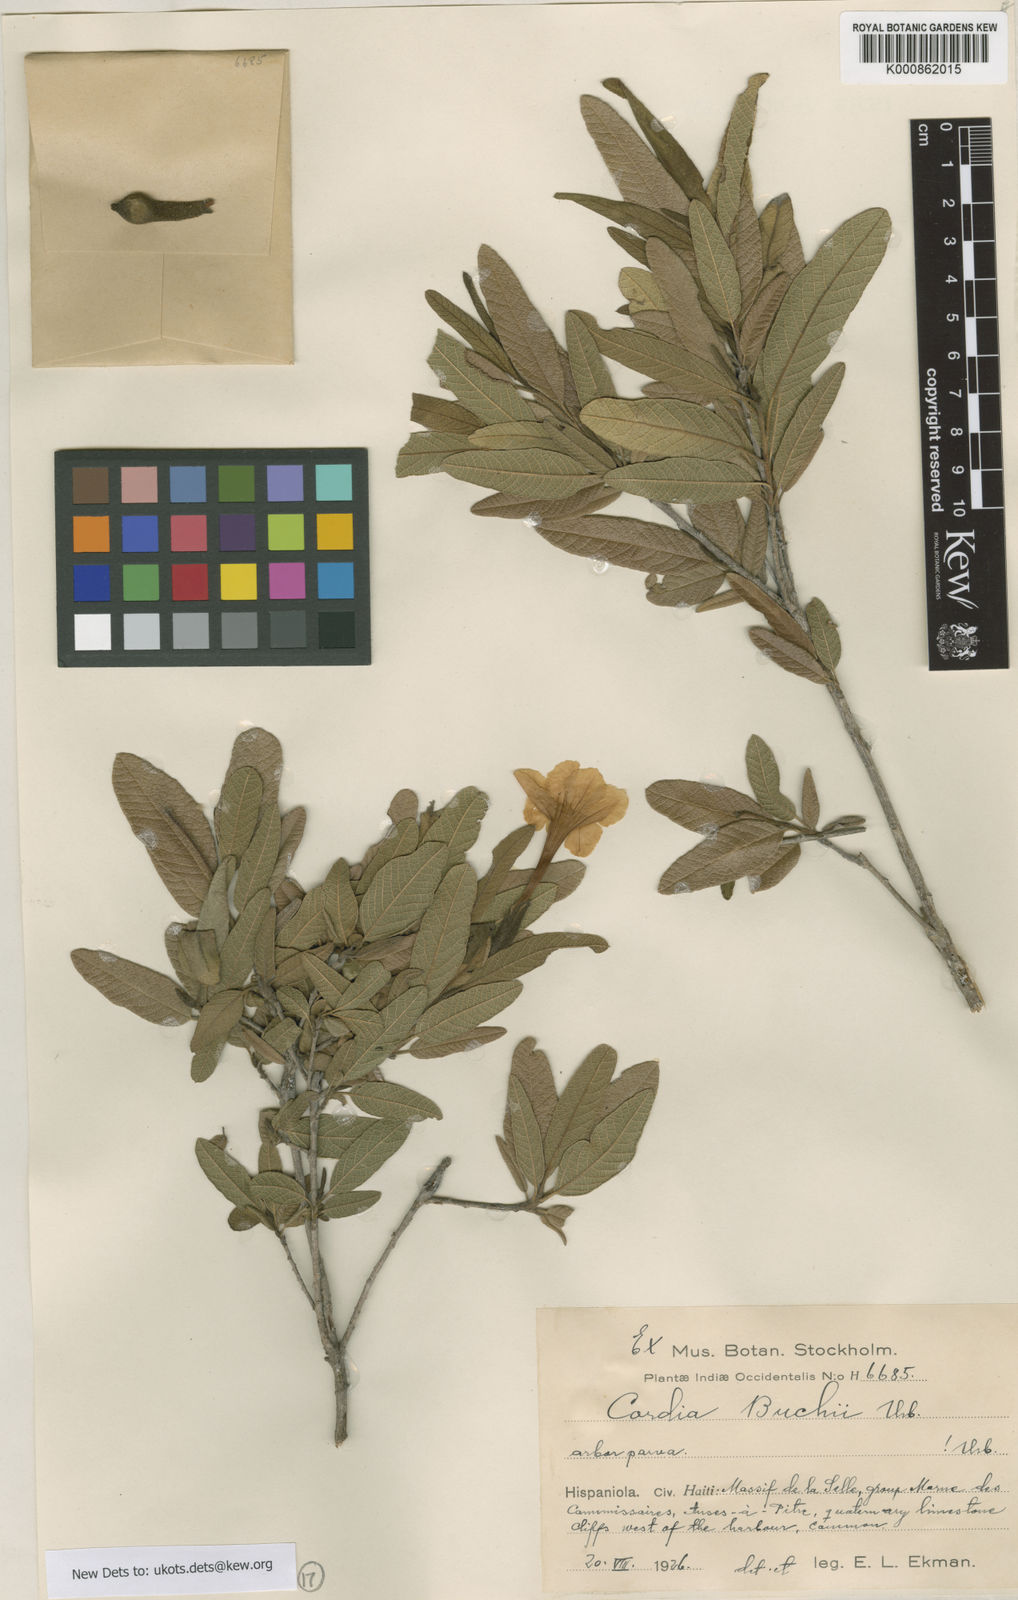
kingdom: Plantae
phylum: Tracheophyta
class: Magnoliopsida
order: Boraginales
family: Cordiaceae
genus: Varronia
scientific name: Varronia salviifolia
